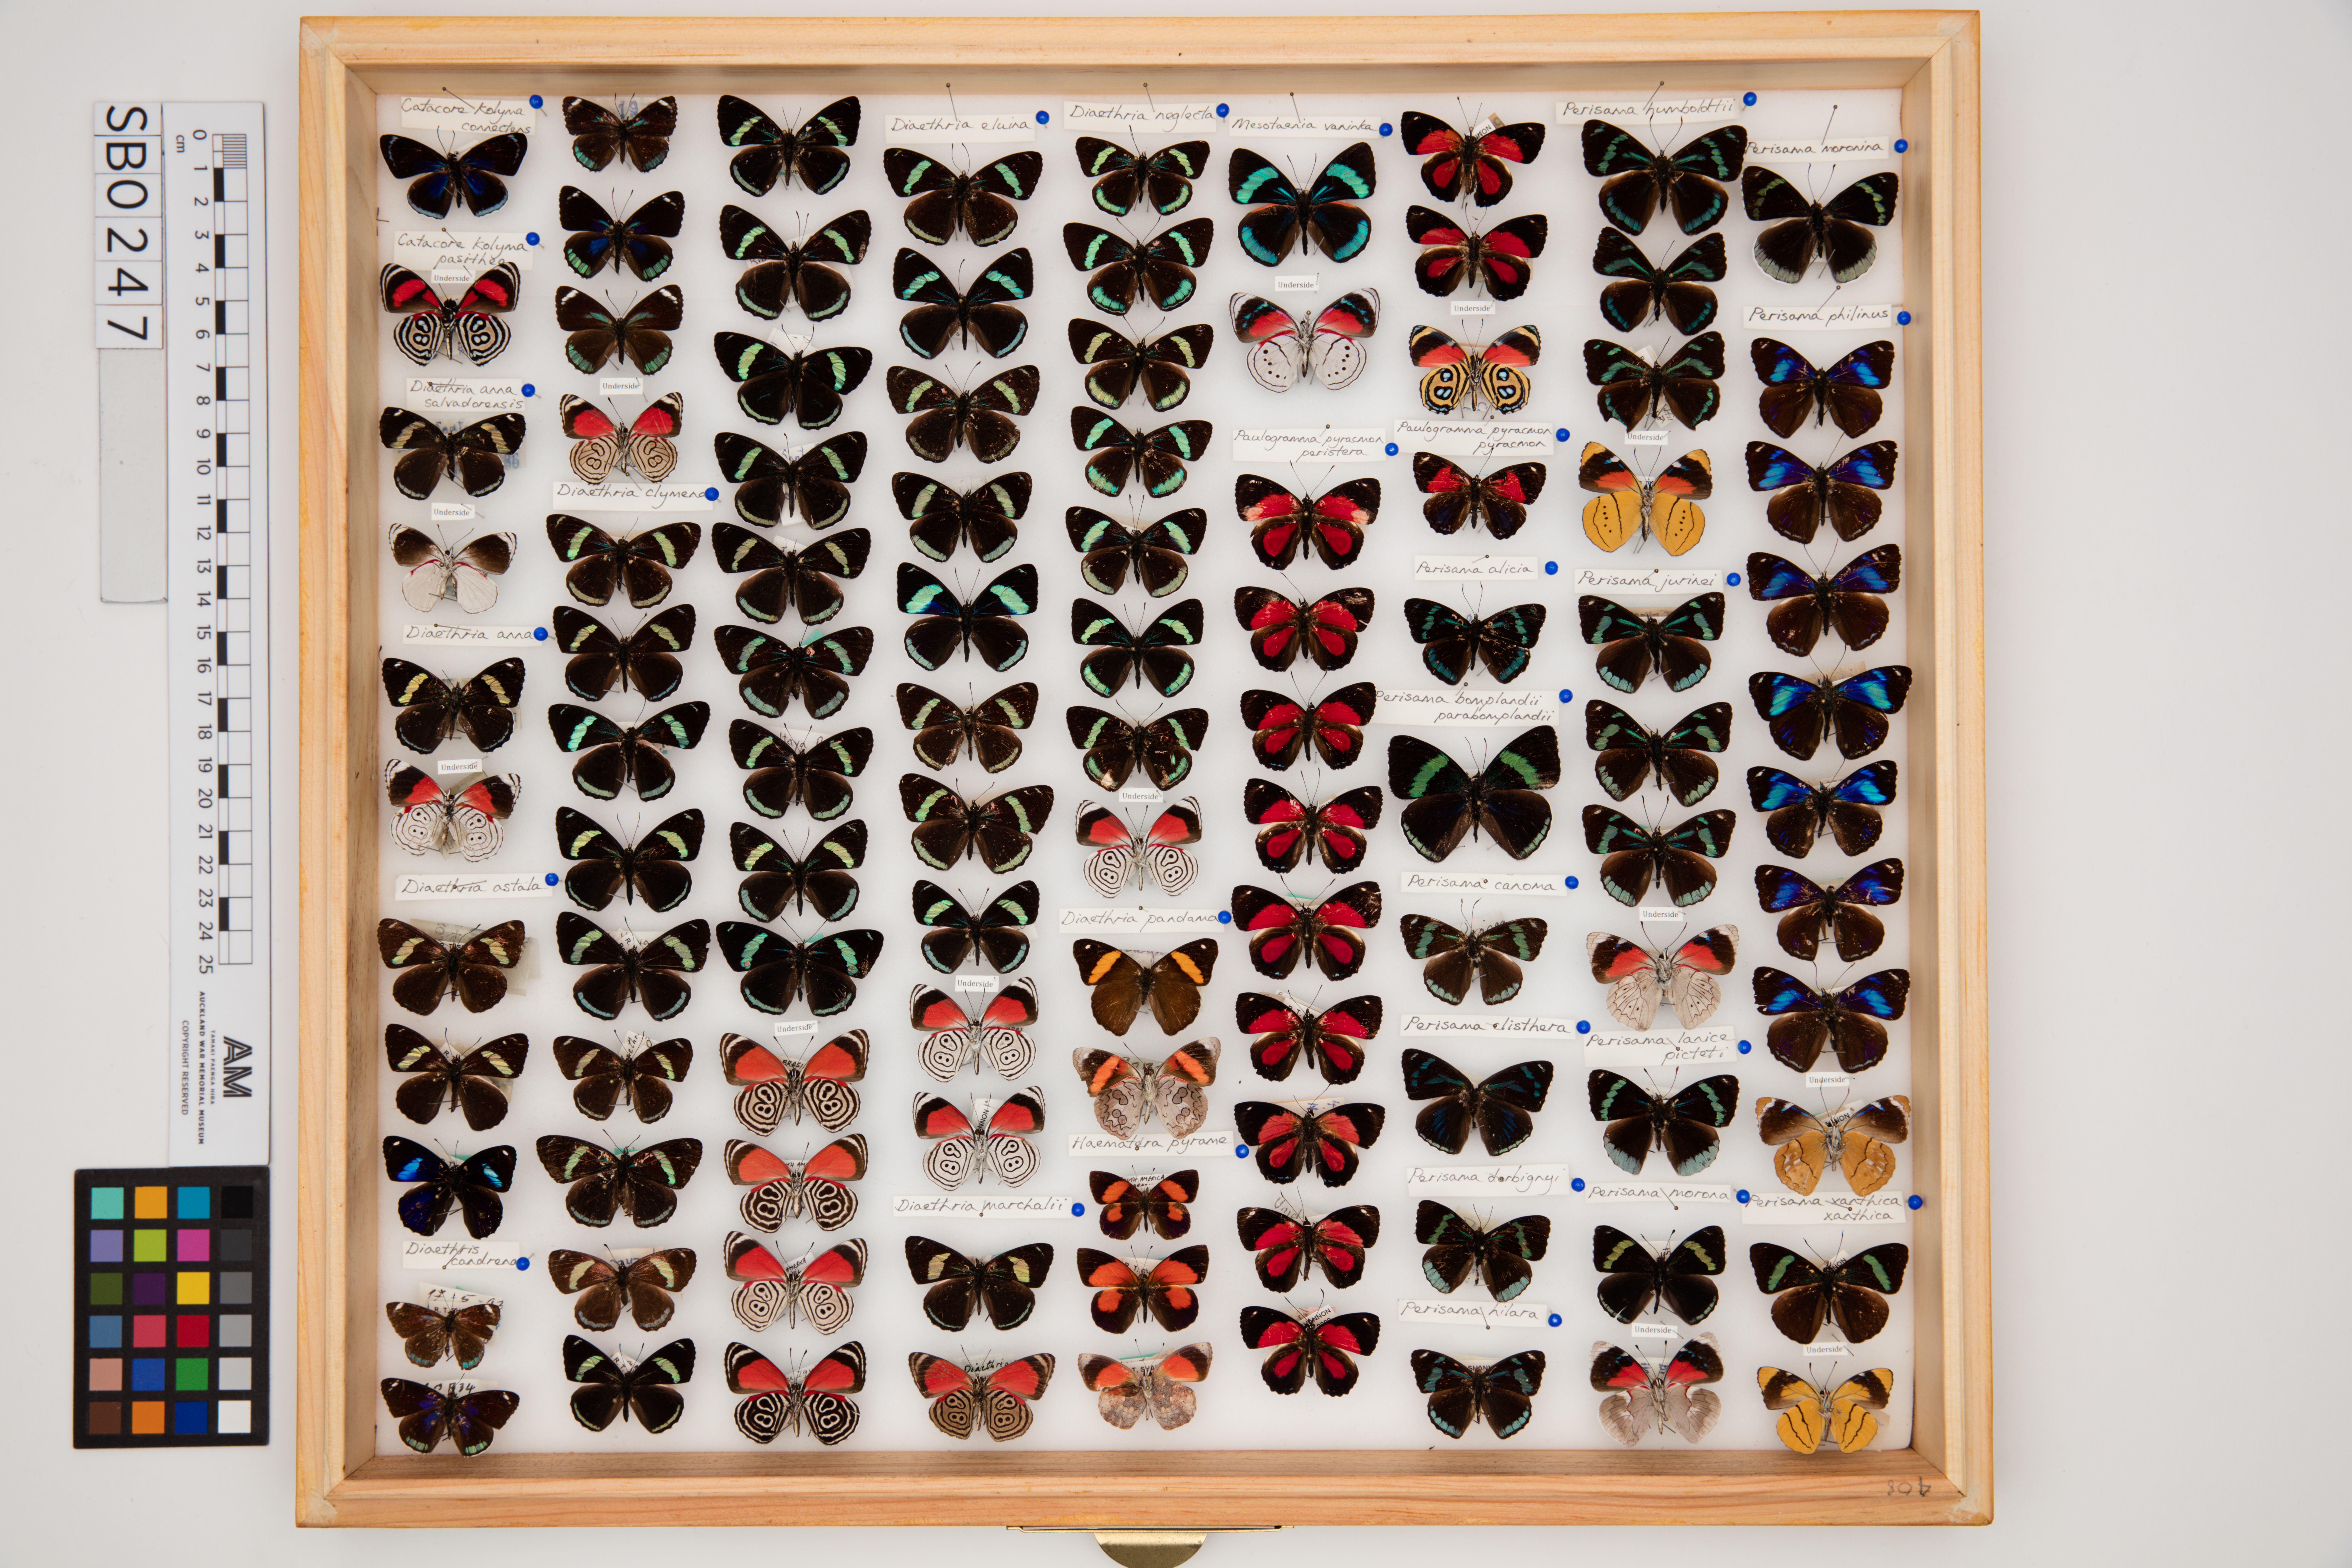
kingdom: Animalia
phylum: Arthropoda
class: Insecta
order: Lepidoptera
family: Nymphalidae
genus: Diaethria
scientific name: Diaethria anna
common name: Anna’s eighty-eight
